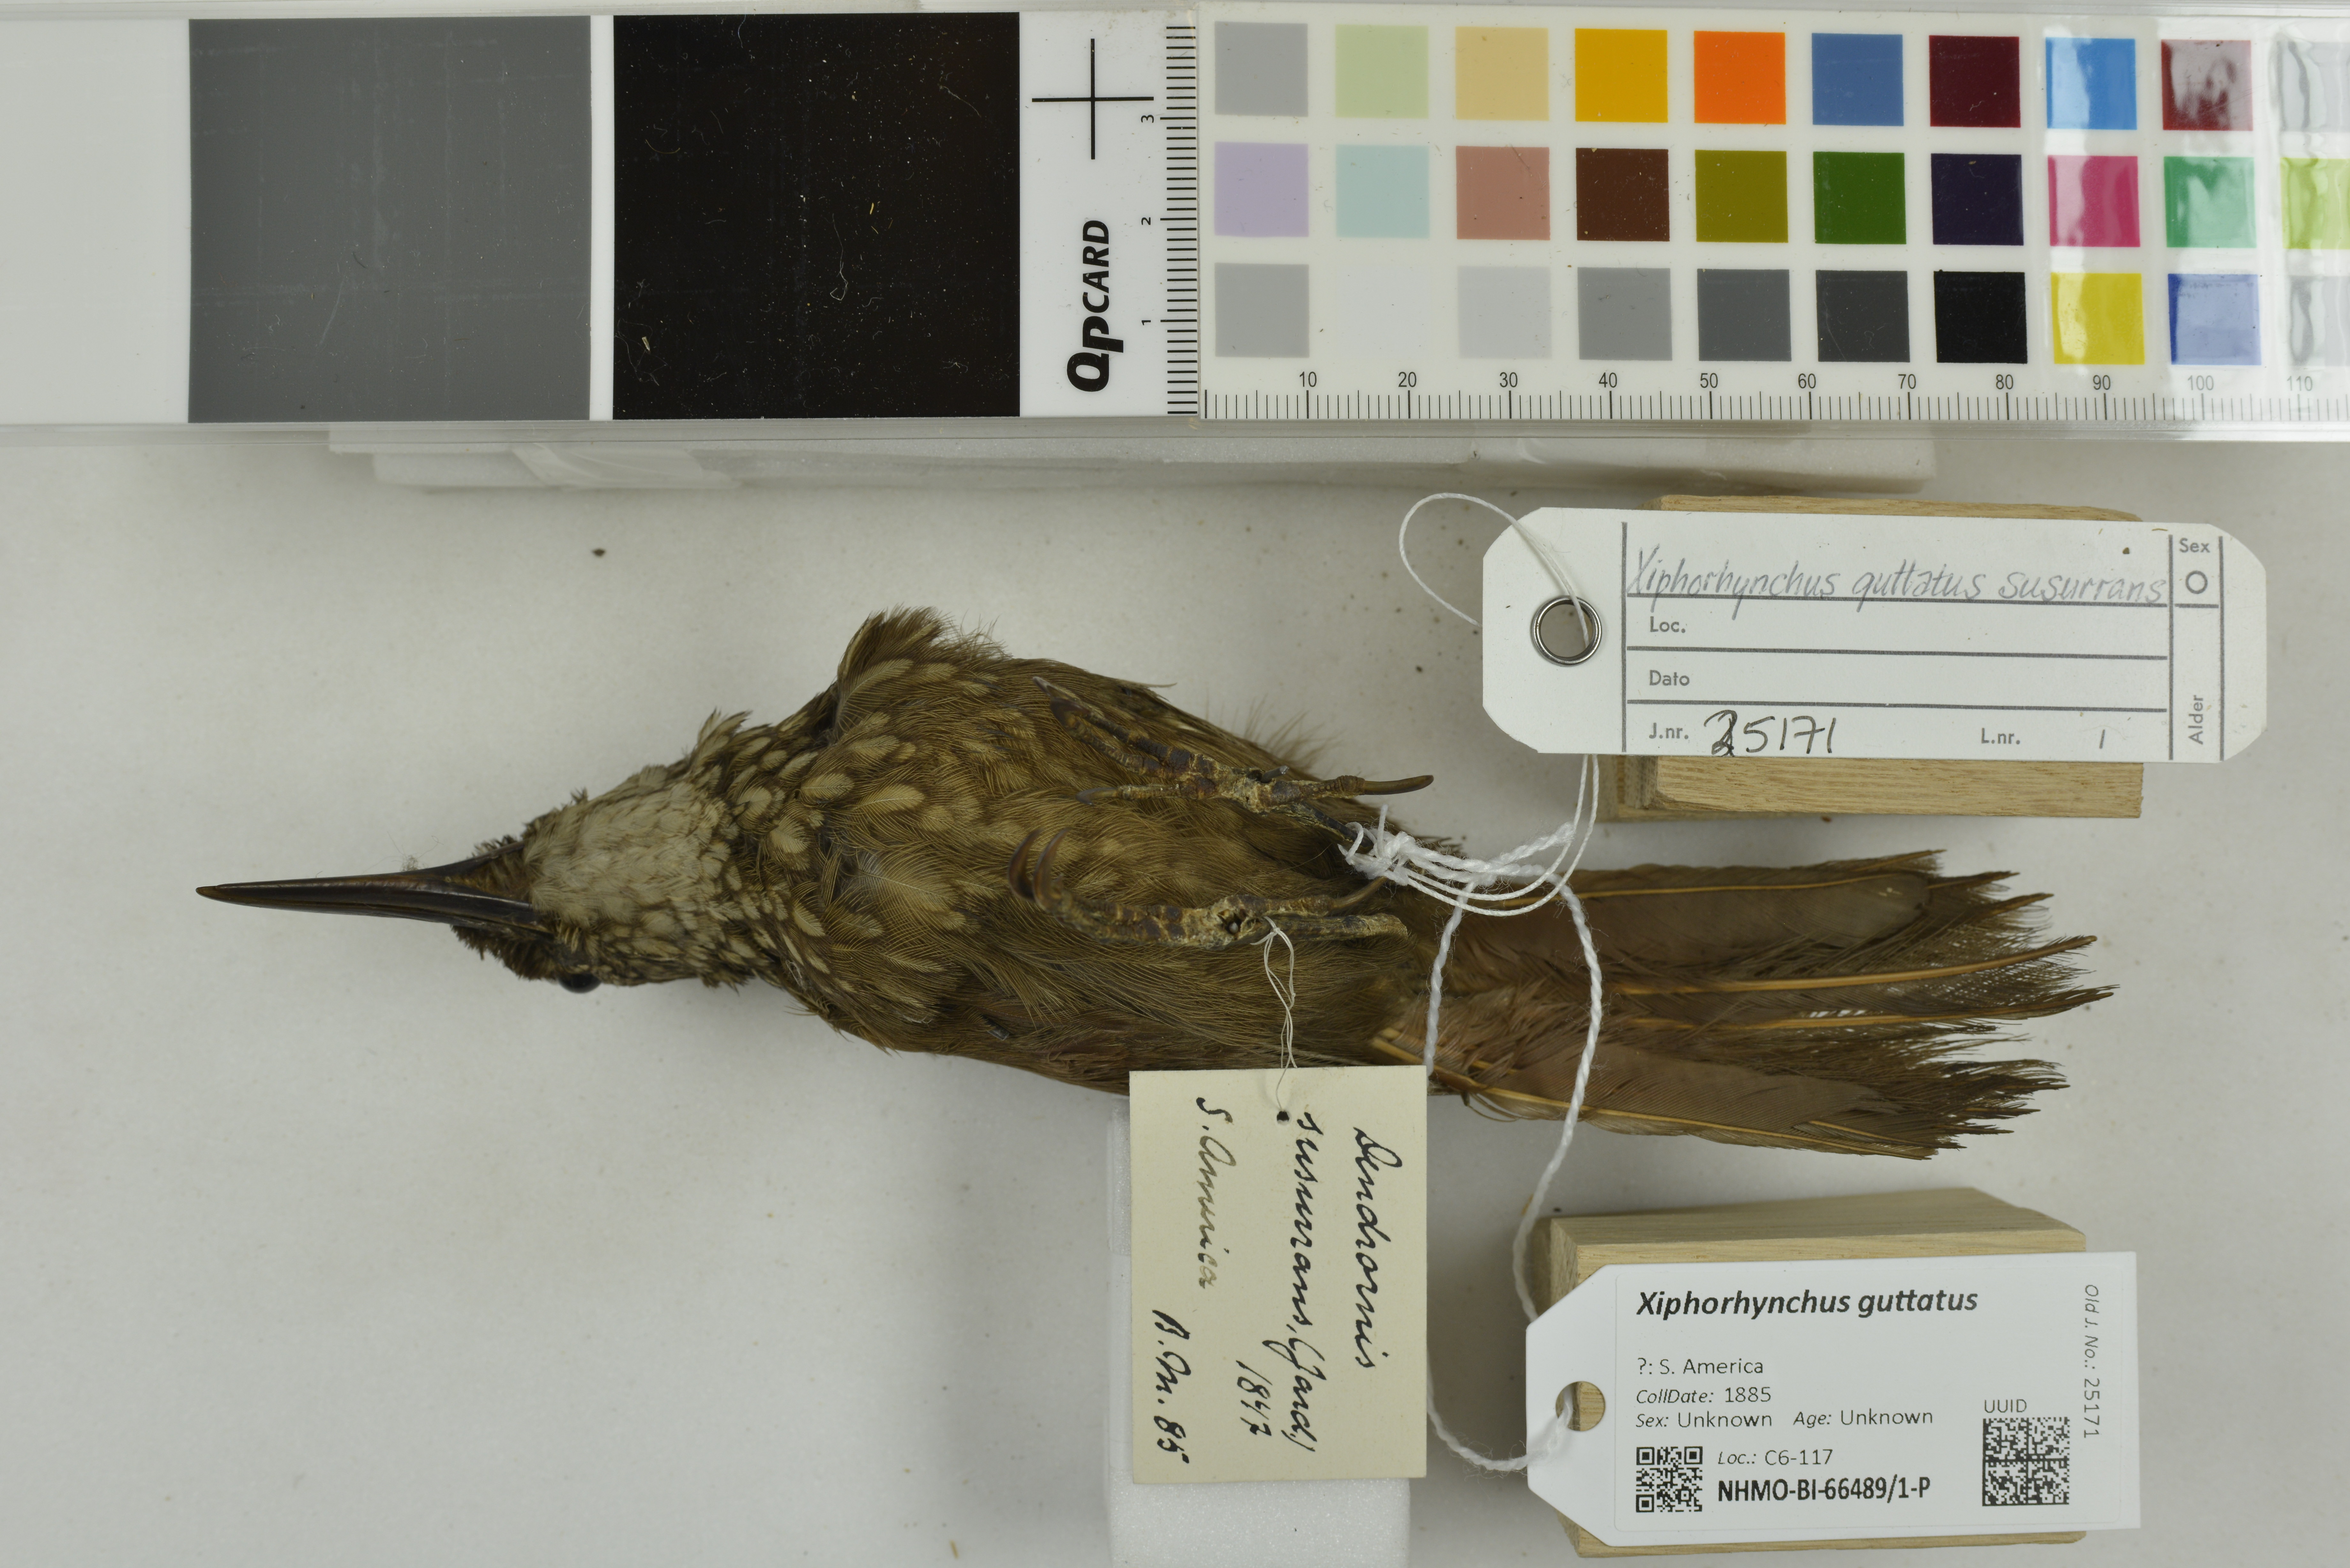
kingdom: Animalia
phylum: Chordata
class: Aves
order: Passeriformes
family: Furnariidae
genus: Xiphorhynchus
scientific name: Xiphorhynchus guttatus
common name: Buff-throated woodcreeper
